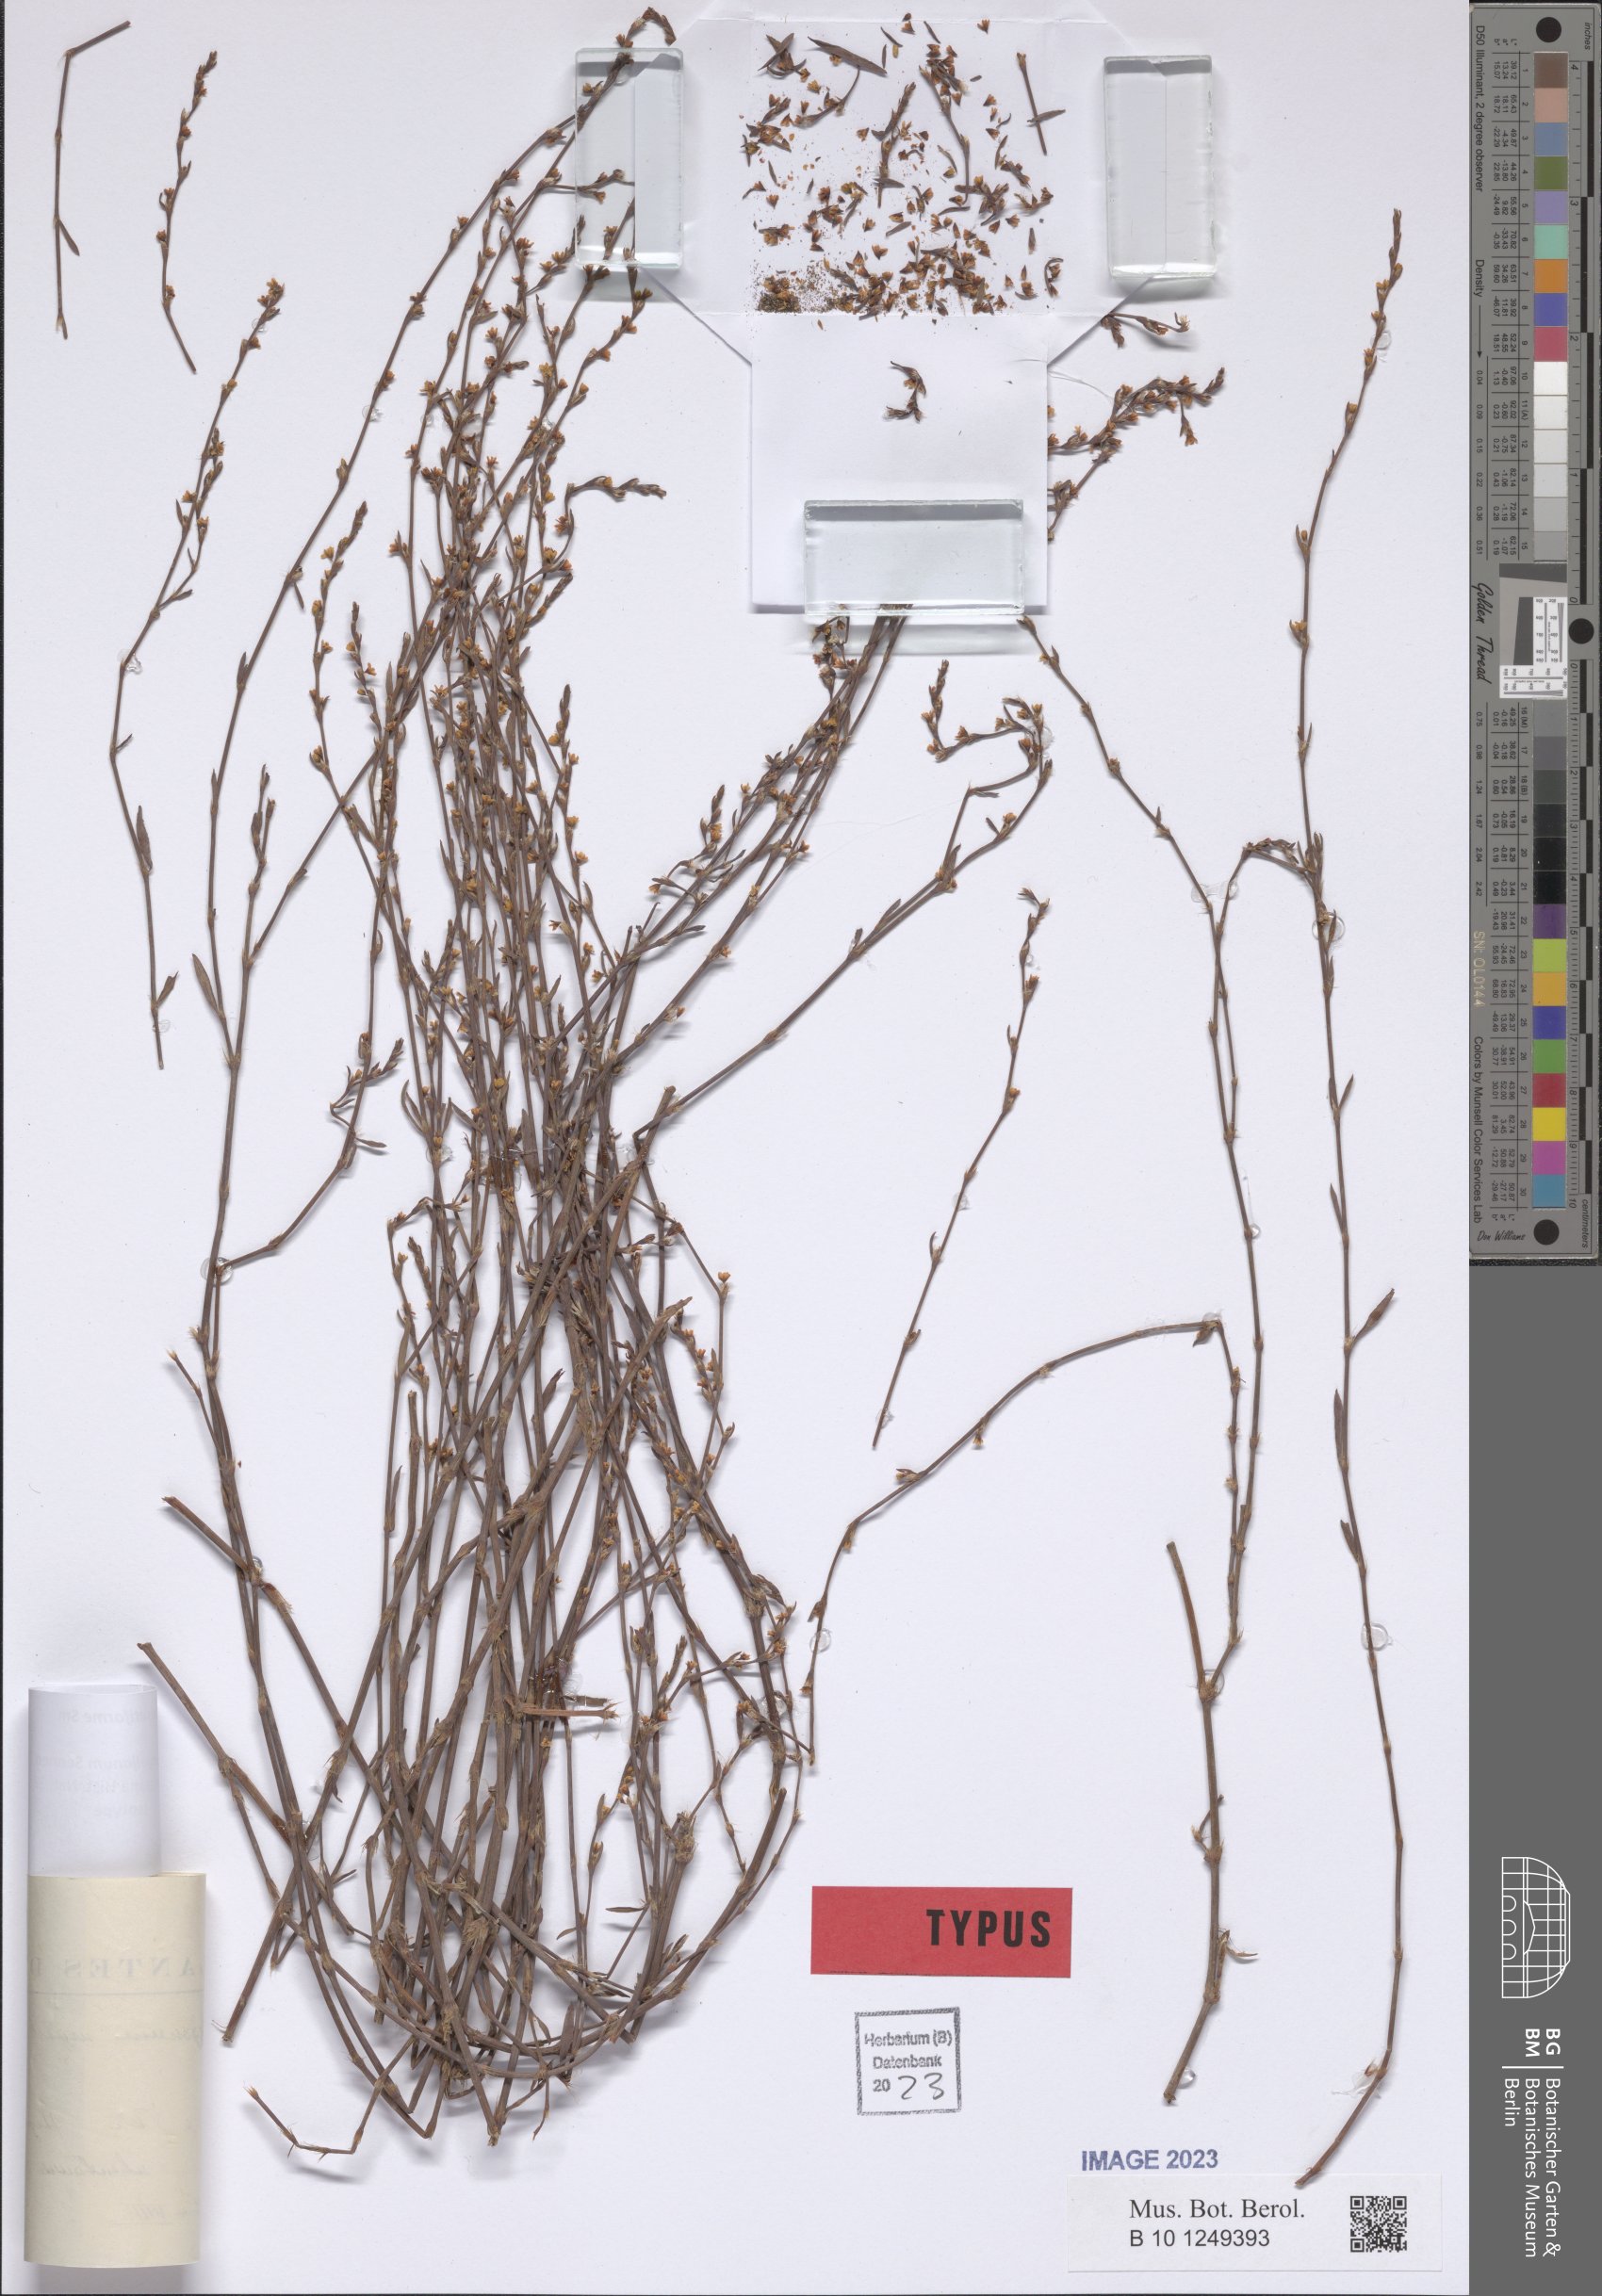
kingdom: Plantae
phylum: Tracheophyta
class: Magnoliopsida
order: Caryophyllales
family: Polygonaceae
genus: Polygonum
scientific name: Polygonum equisetiforme
